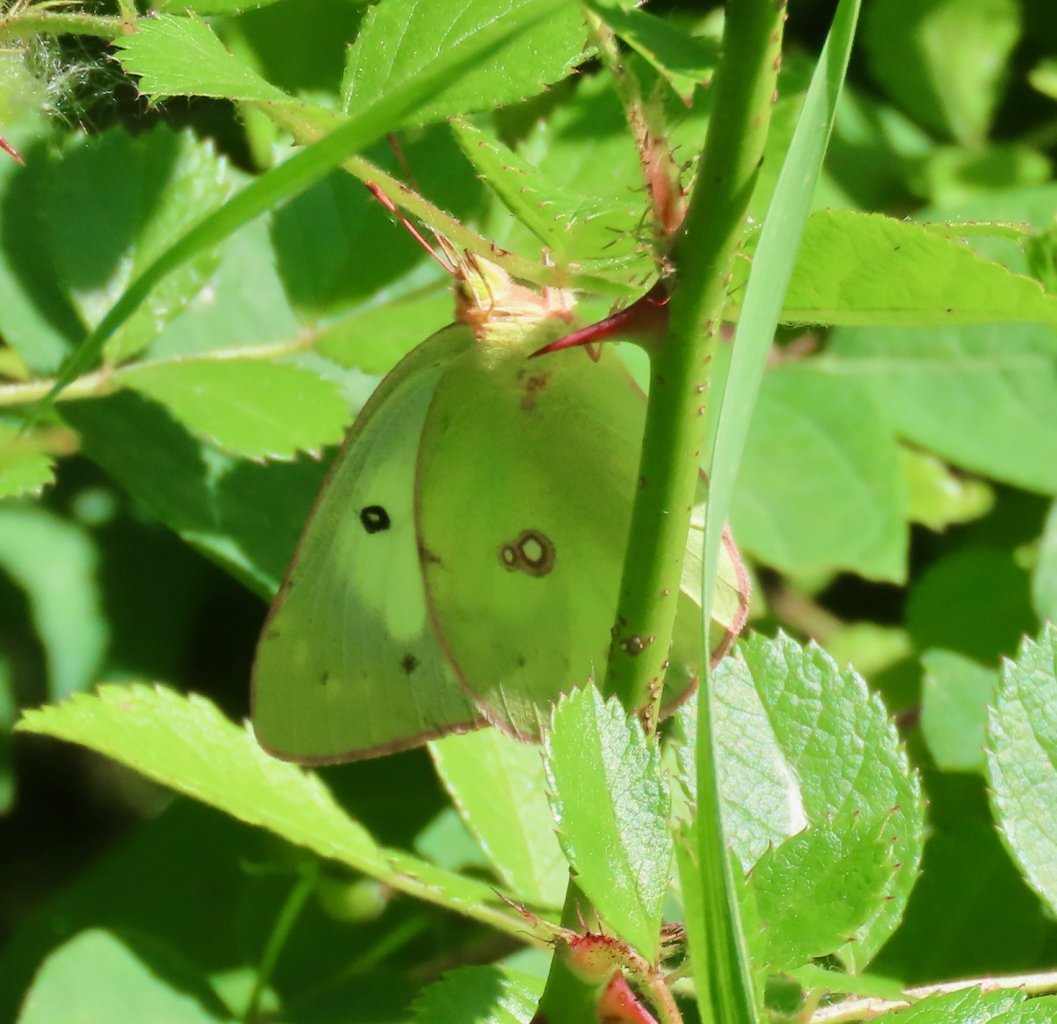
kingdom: Animalia
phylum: Arthropoda
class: Insecta
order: Lepidoptera
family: Pieridae
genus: Colias
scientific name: Colias philodice
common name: Clouded Sulphur
